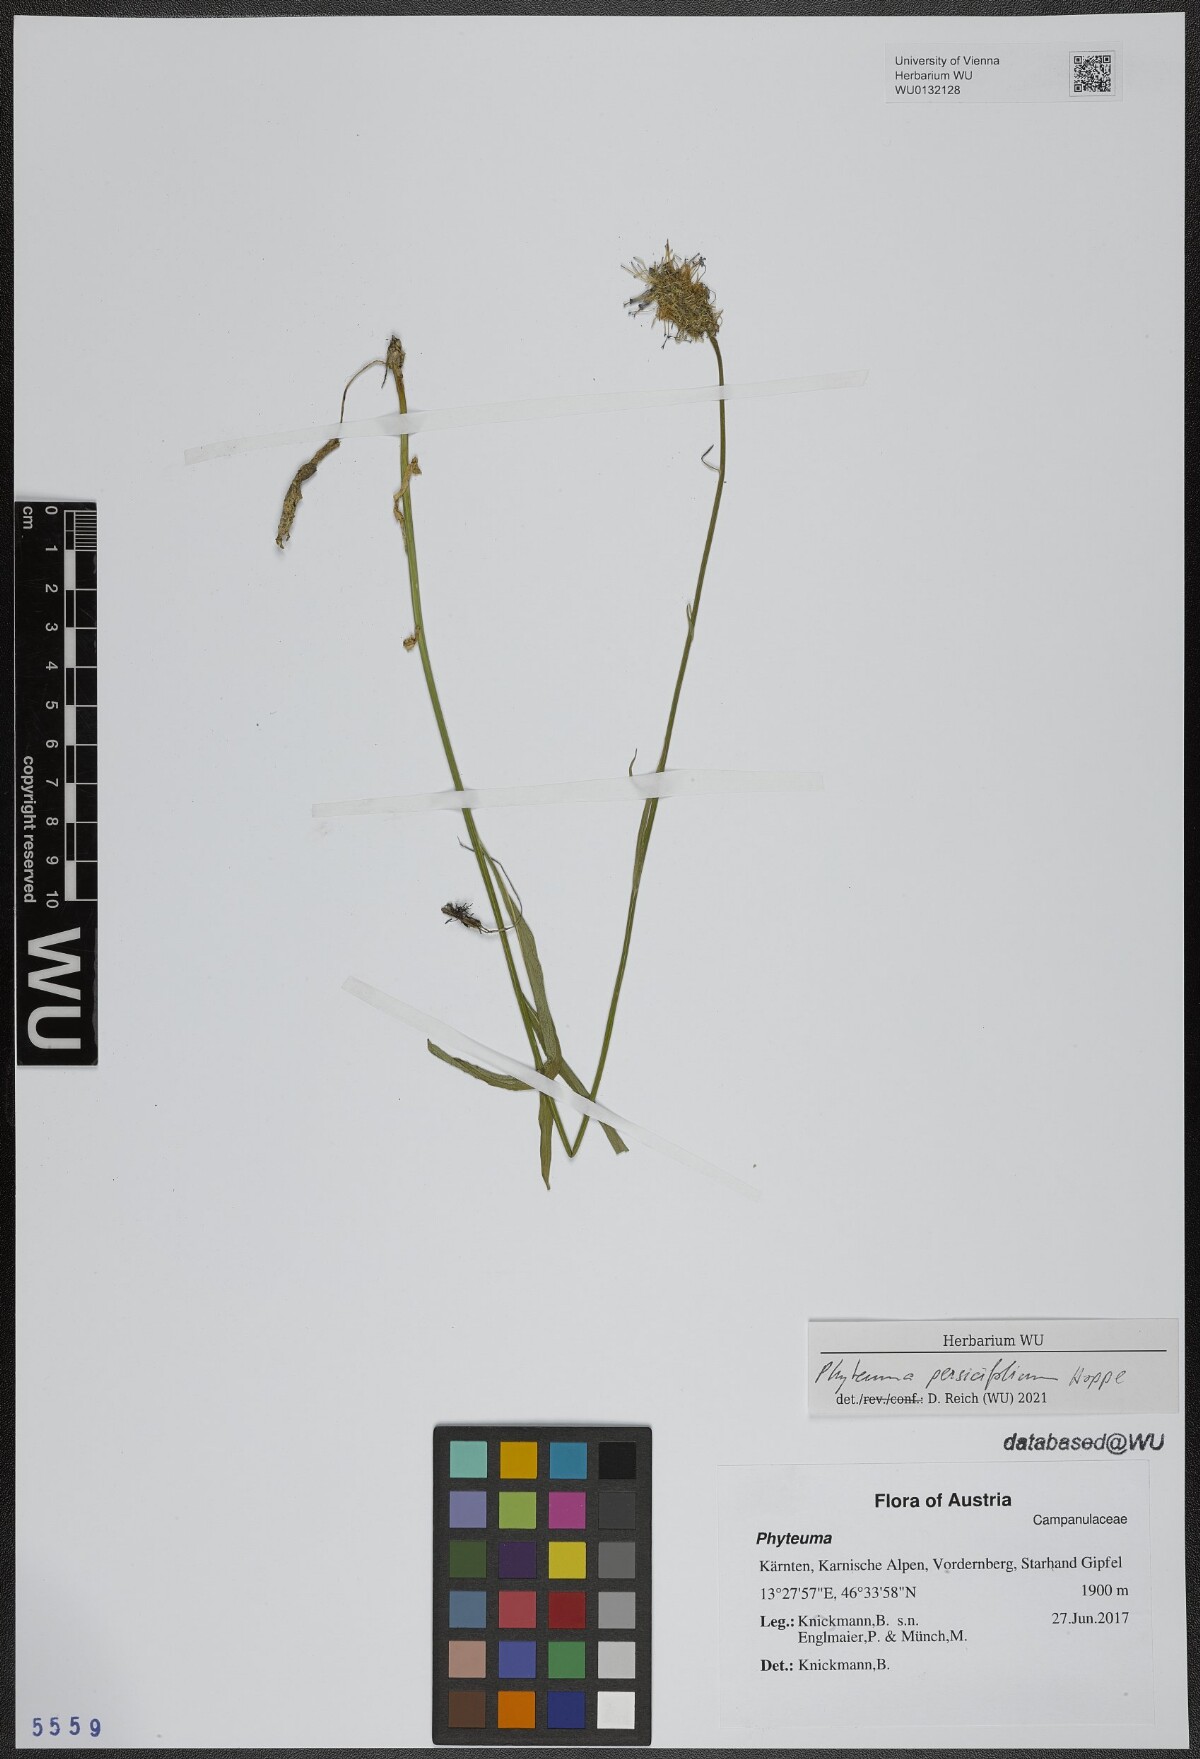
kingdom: Plantae
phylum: Tracheophyta
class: Magnoliopsida
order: Asterales
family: Campanulaceae
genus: Phyteuma
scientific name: Phyteuma persicifolium
